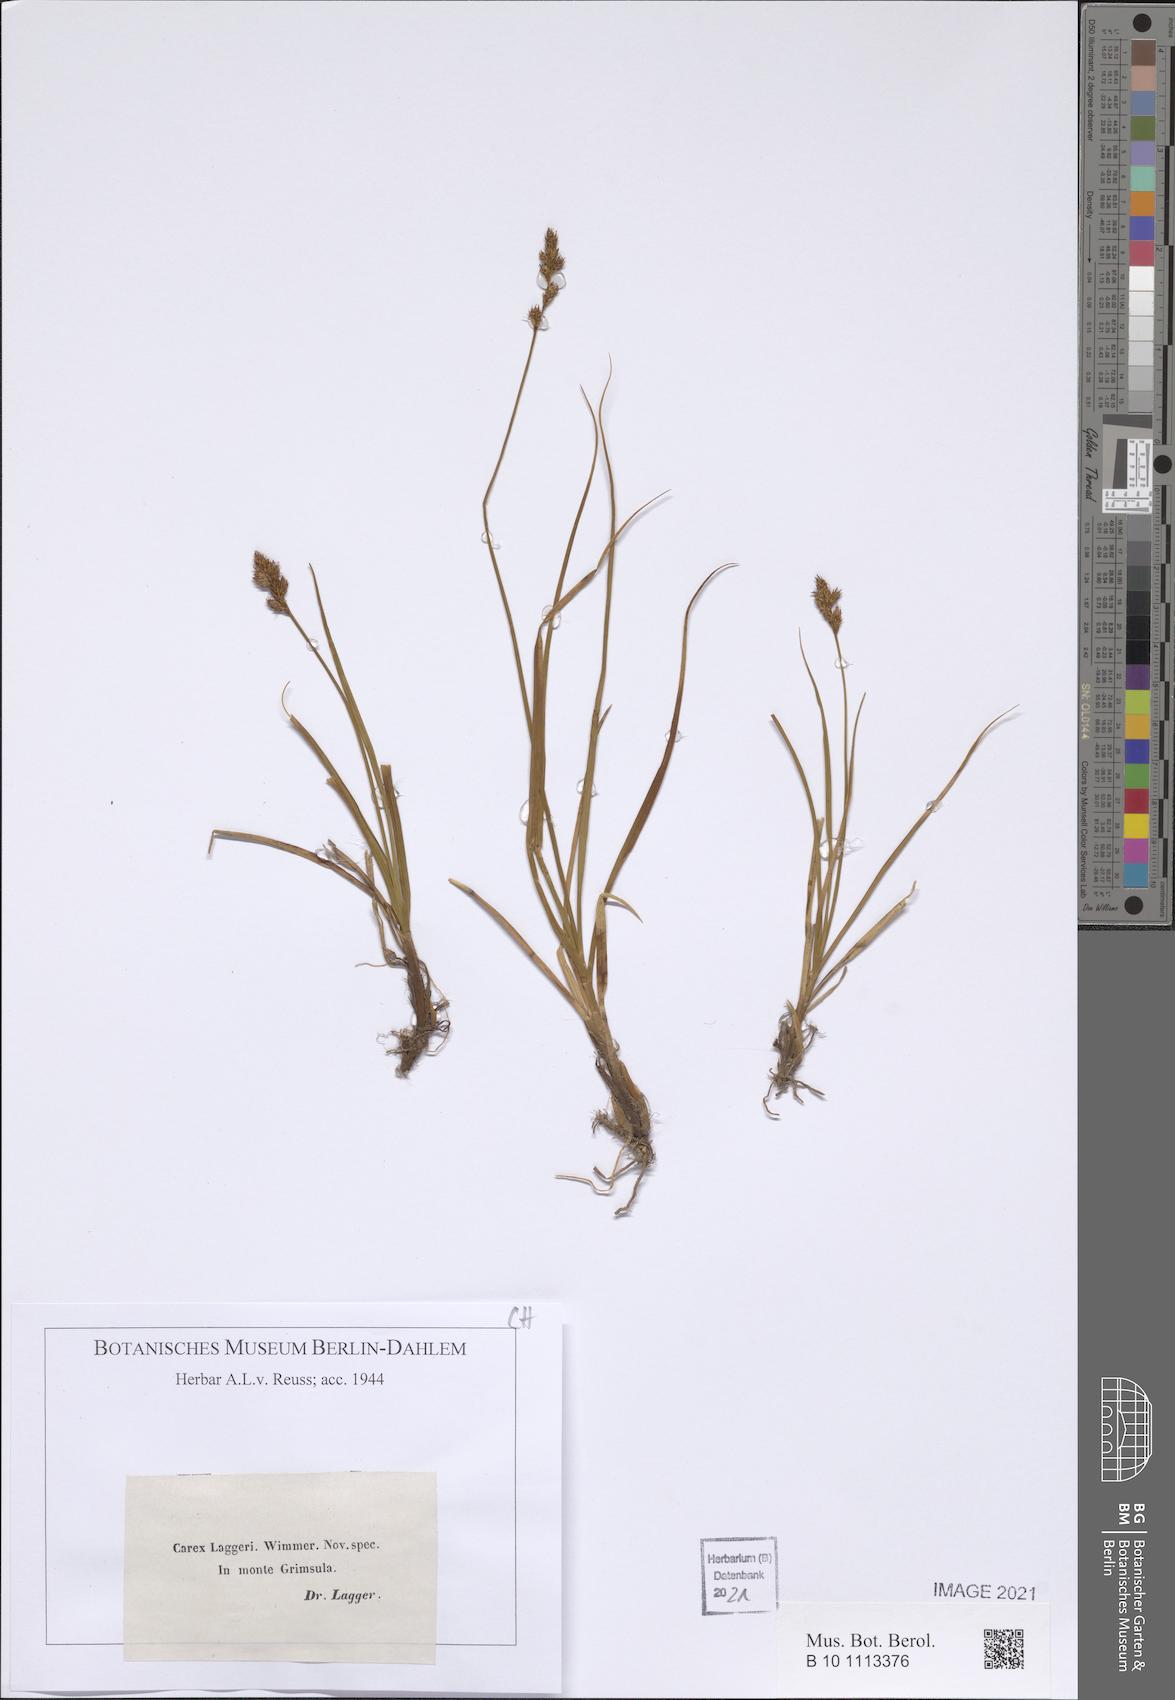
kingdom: Plantae
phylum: Tracheophyta
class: Liliopsida
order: Poales
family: Cyperaceae
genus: Carex
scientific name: Carex laggeri
